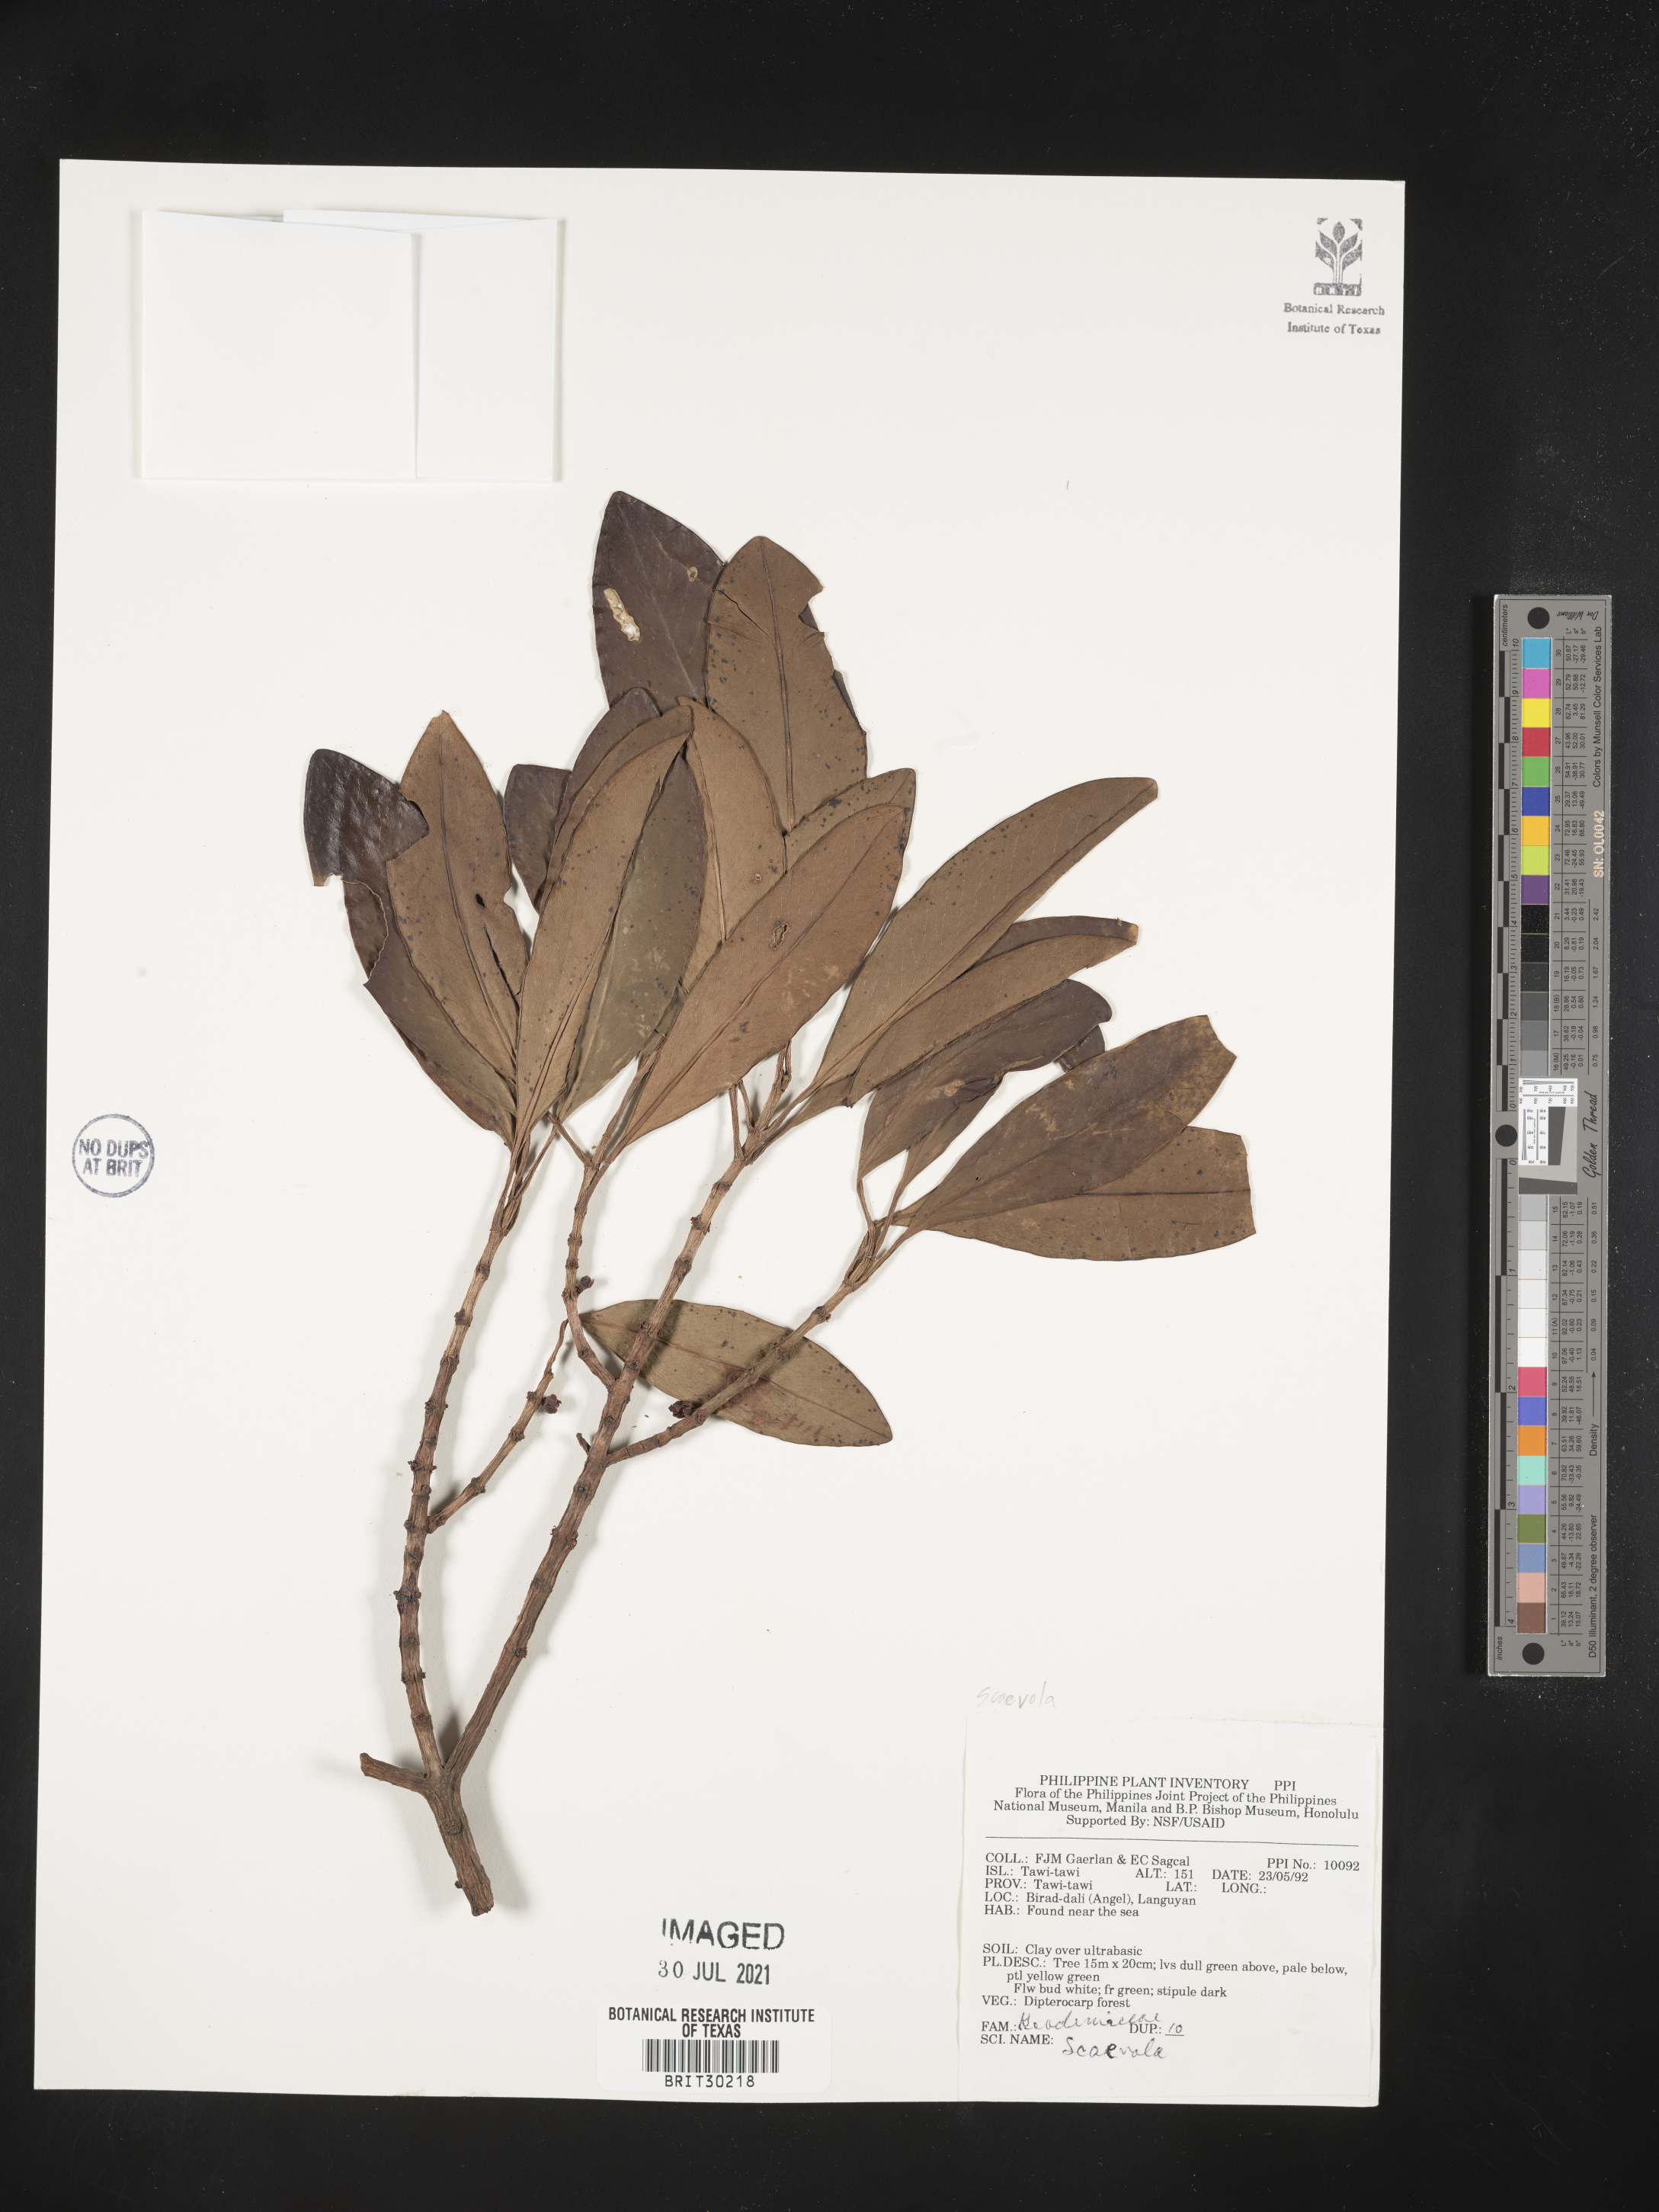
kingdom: Plantae
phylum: Tracheophyta
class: Magnoliopsida
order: Asterales
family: Goodeniaceae
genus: Scaevola
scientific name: Scaevola
